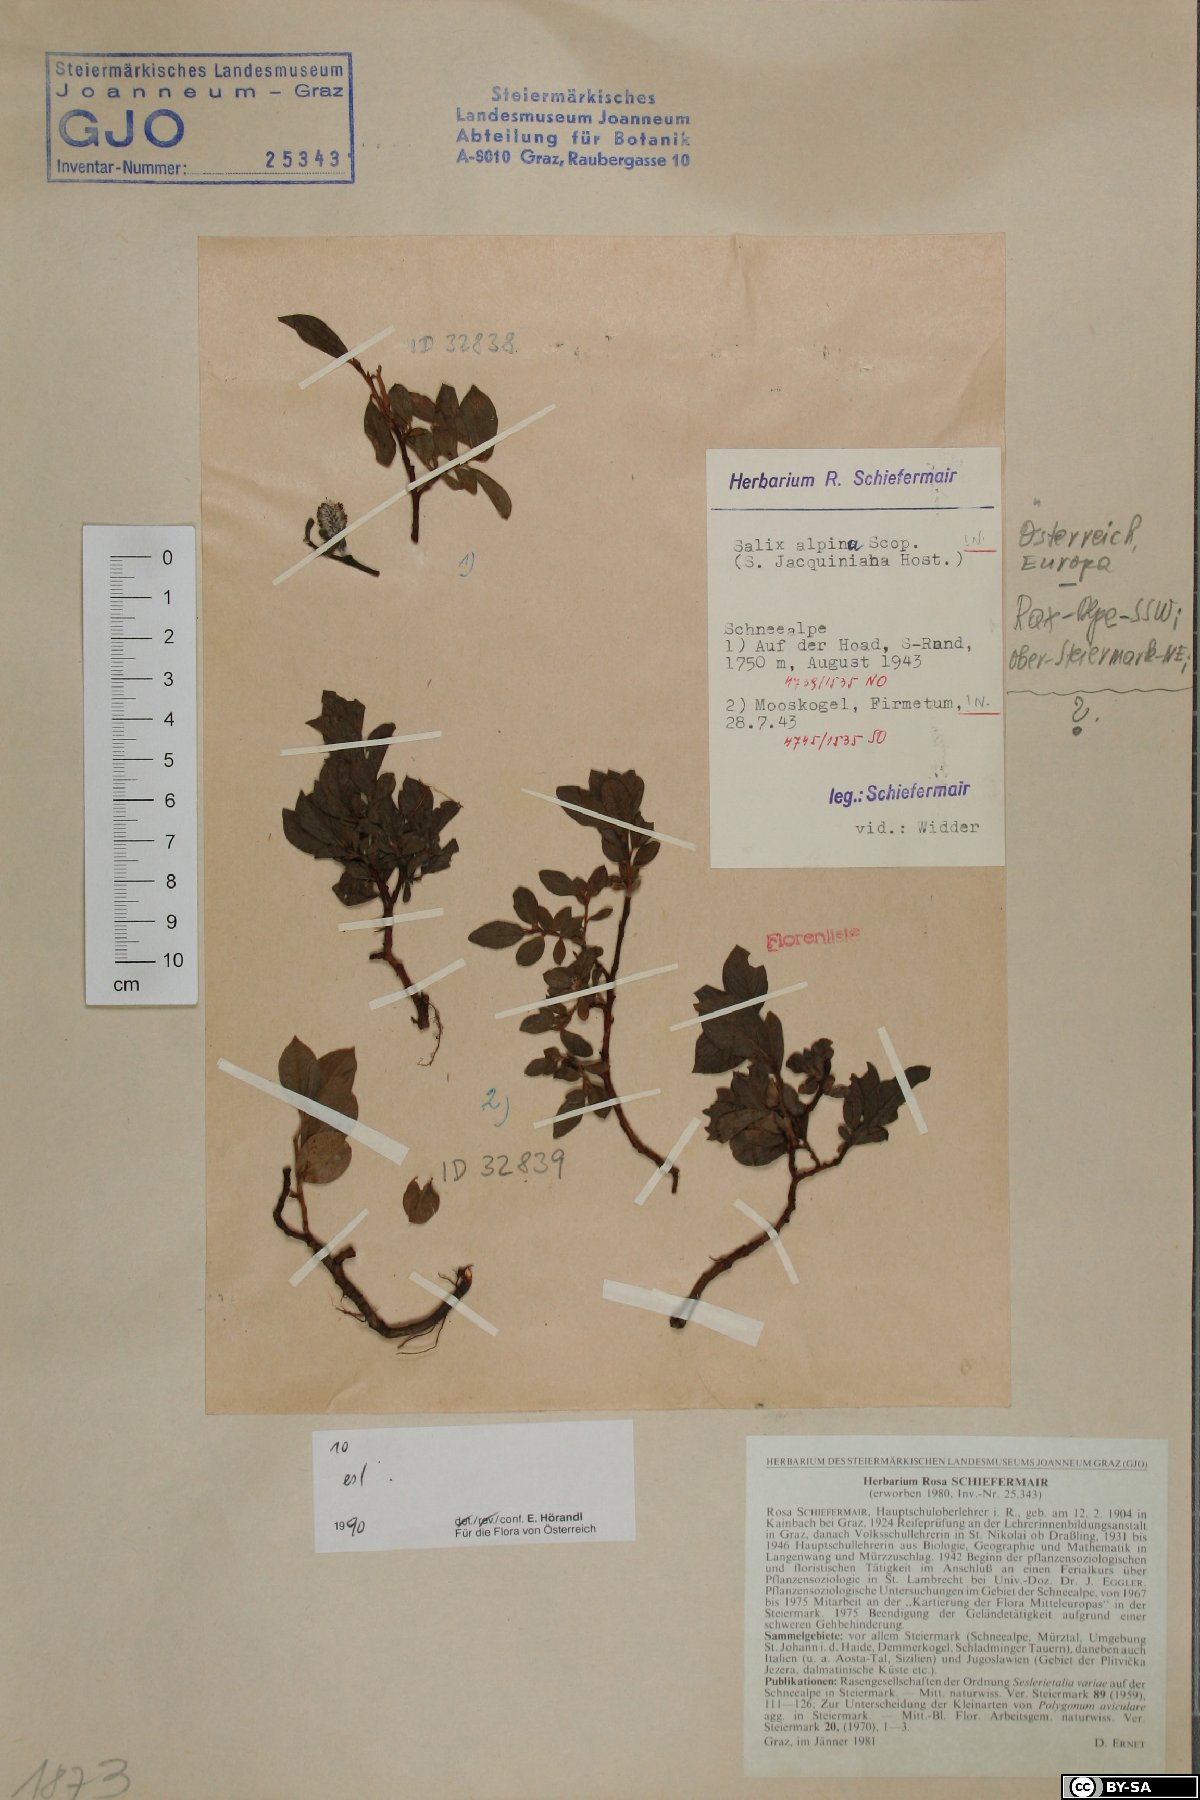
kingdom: Plantae
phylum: Tracheophyta
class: Magnoliopsida
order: Malpighiales
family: Salicaceae
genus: Salix
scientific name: Salix alpina
